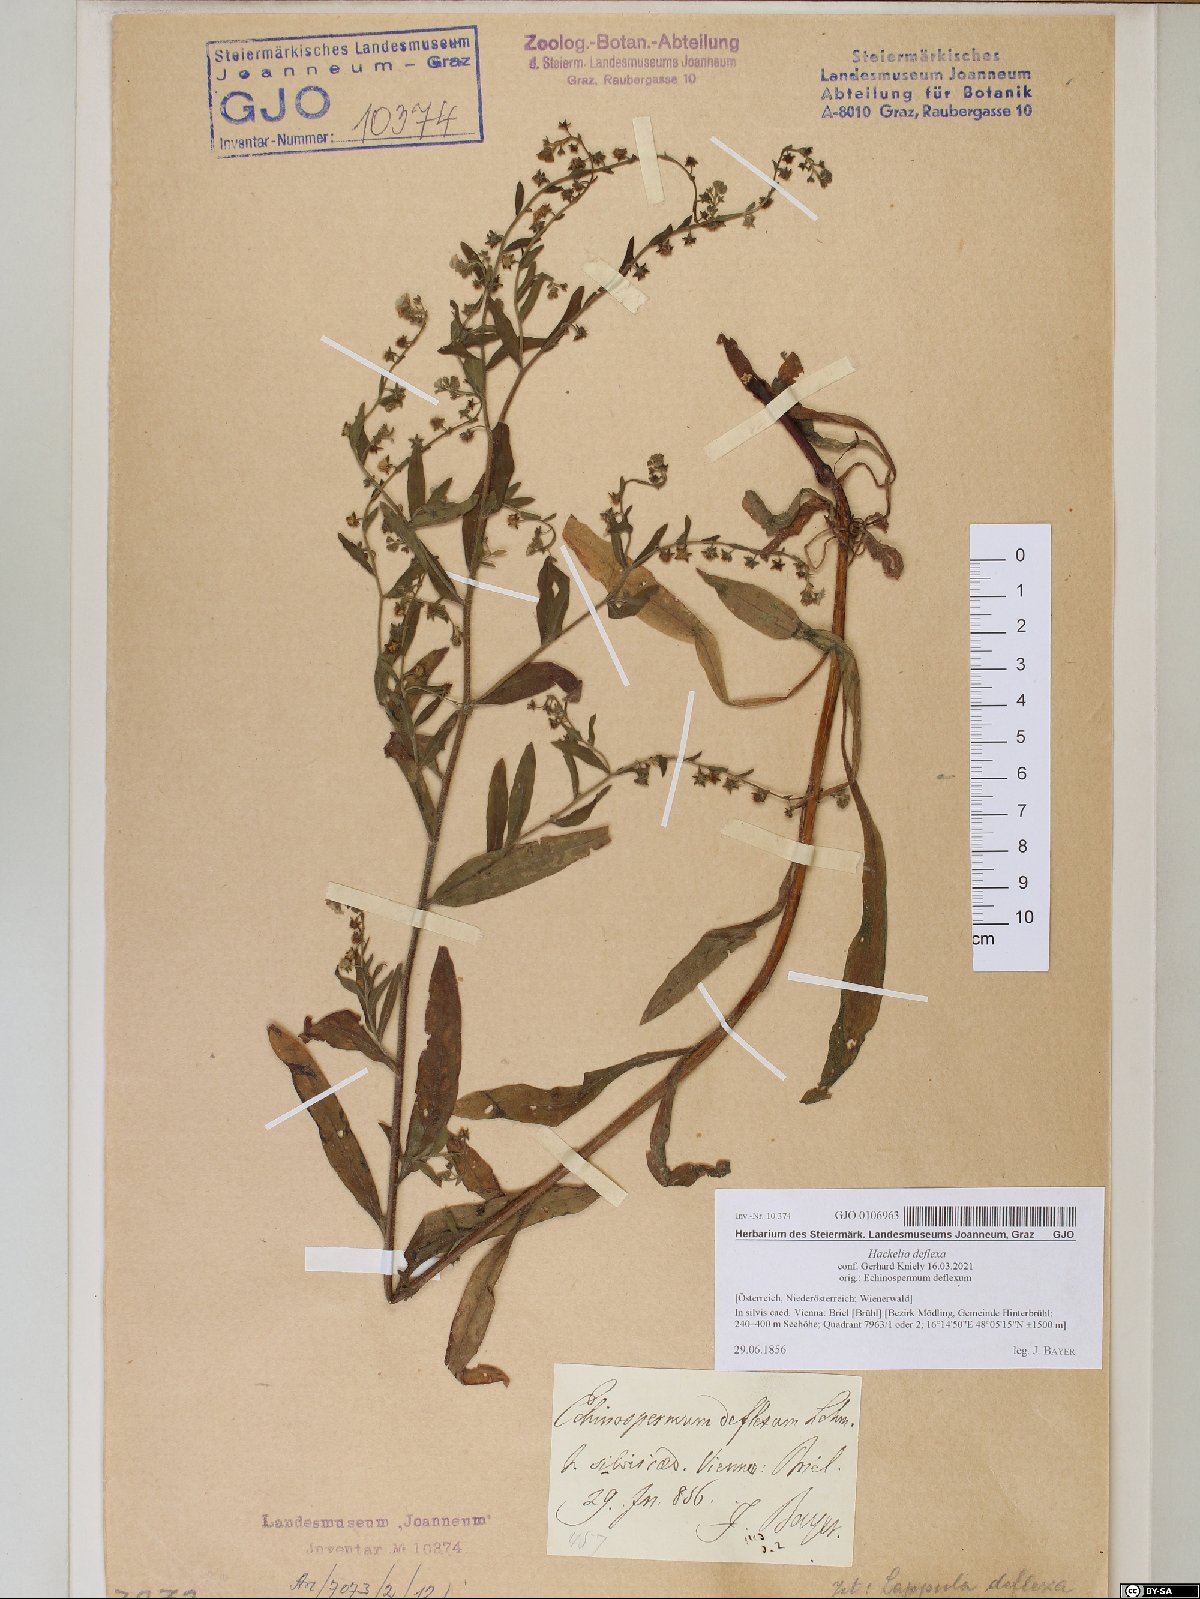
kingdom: Plantae
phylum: Tracheophyta
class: Magnoliopsida
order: Boraginales
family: Boraginaceae
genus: Hackelia
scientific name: Hackelia deflexa
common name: Nodding stickseed
